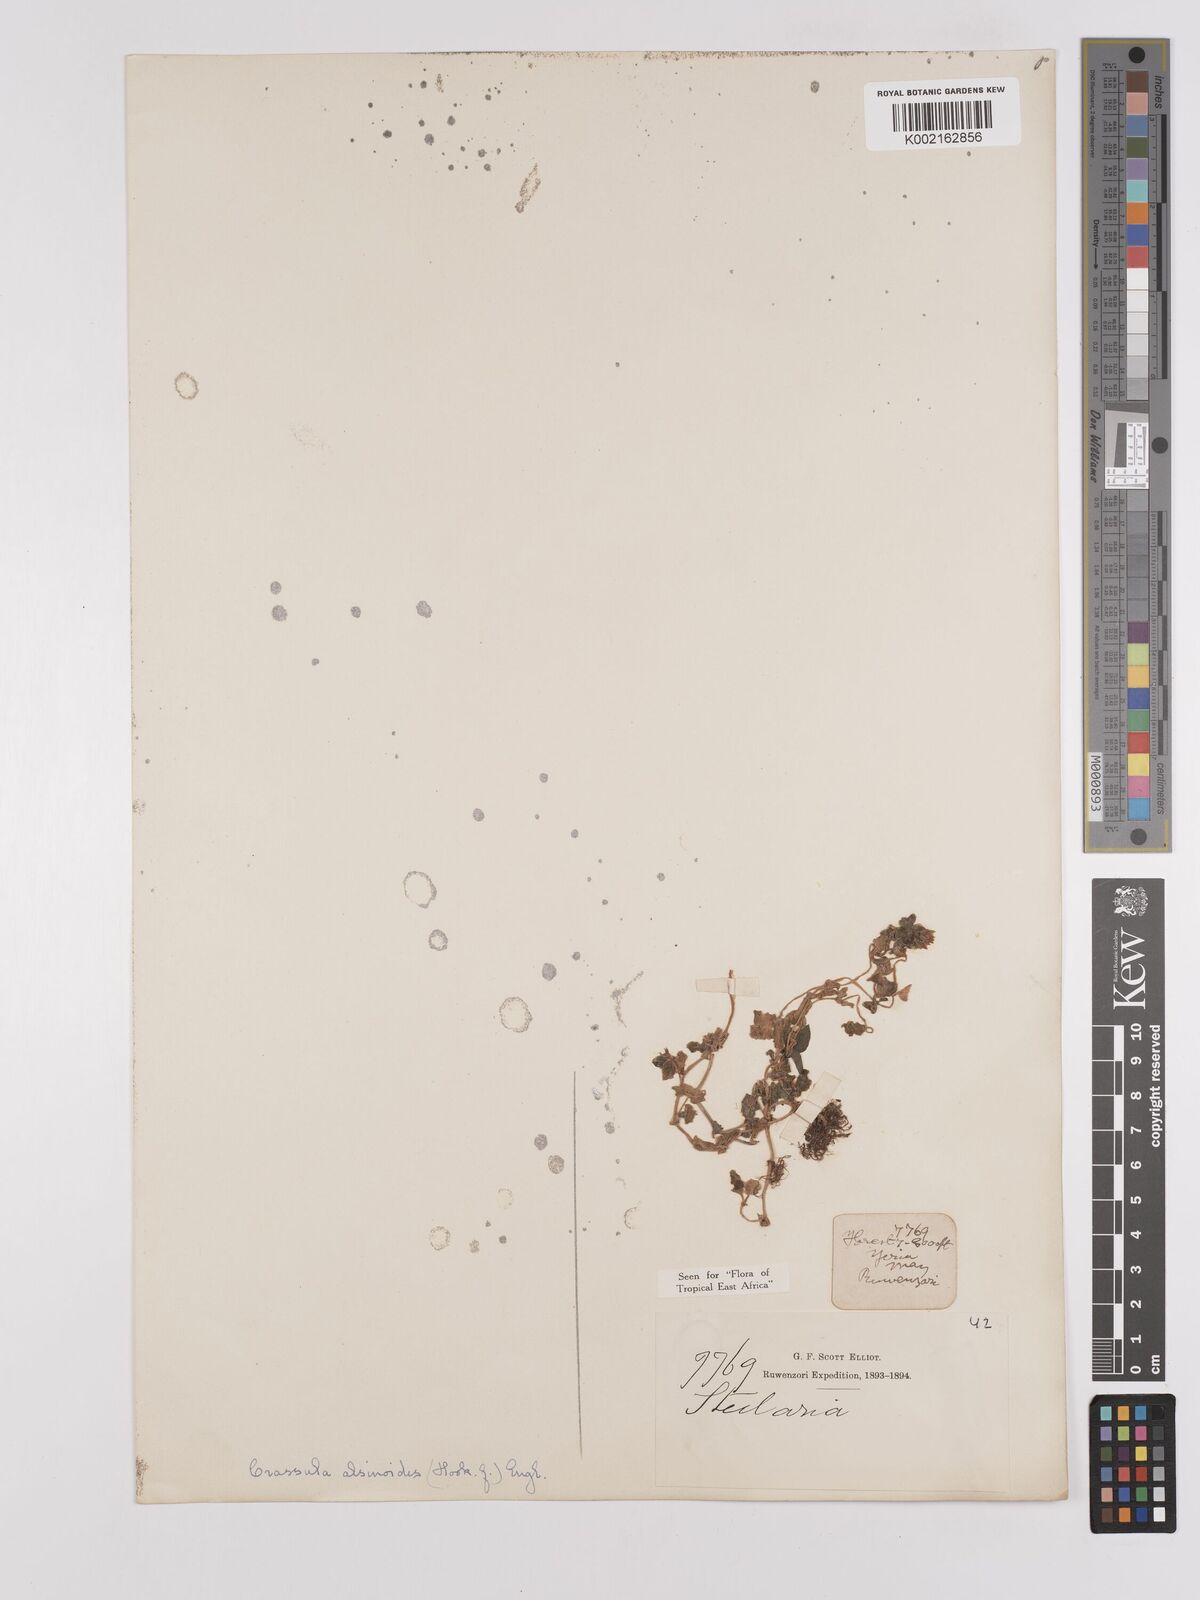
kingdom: Plantae
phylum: Tracheophyta
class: Magnoliopsida
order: Saxifragales
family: Crassulaceae
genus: Crassula
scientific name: Crassula alsinoides
